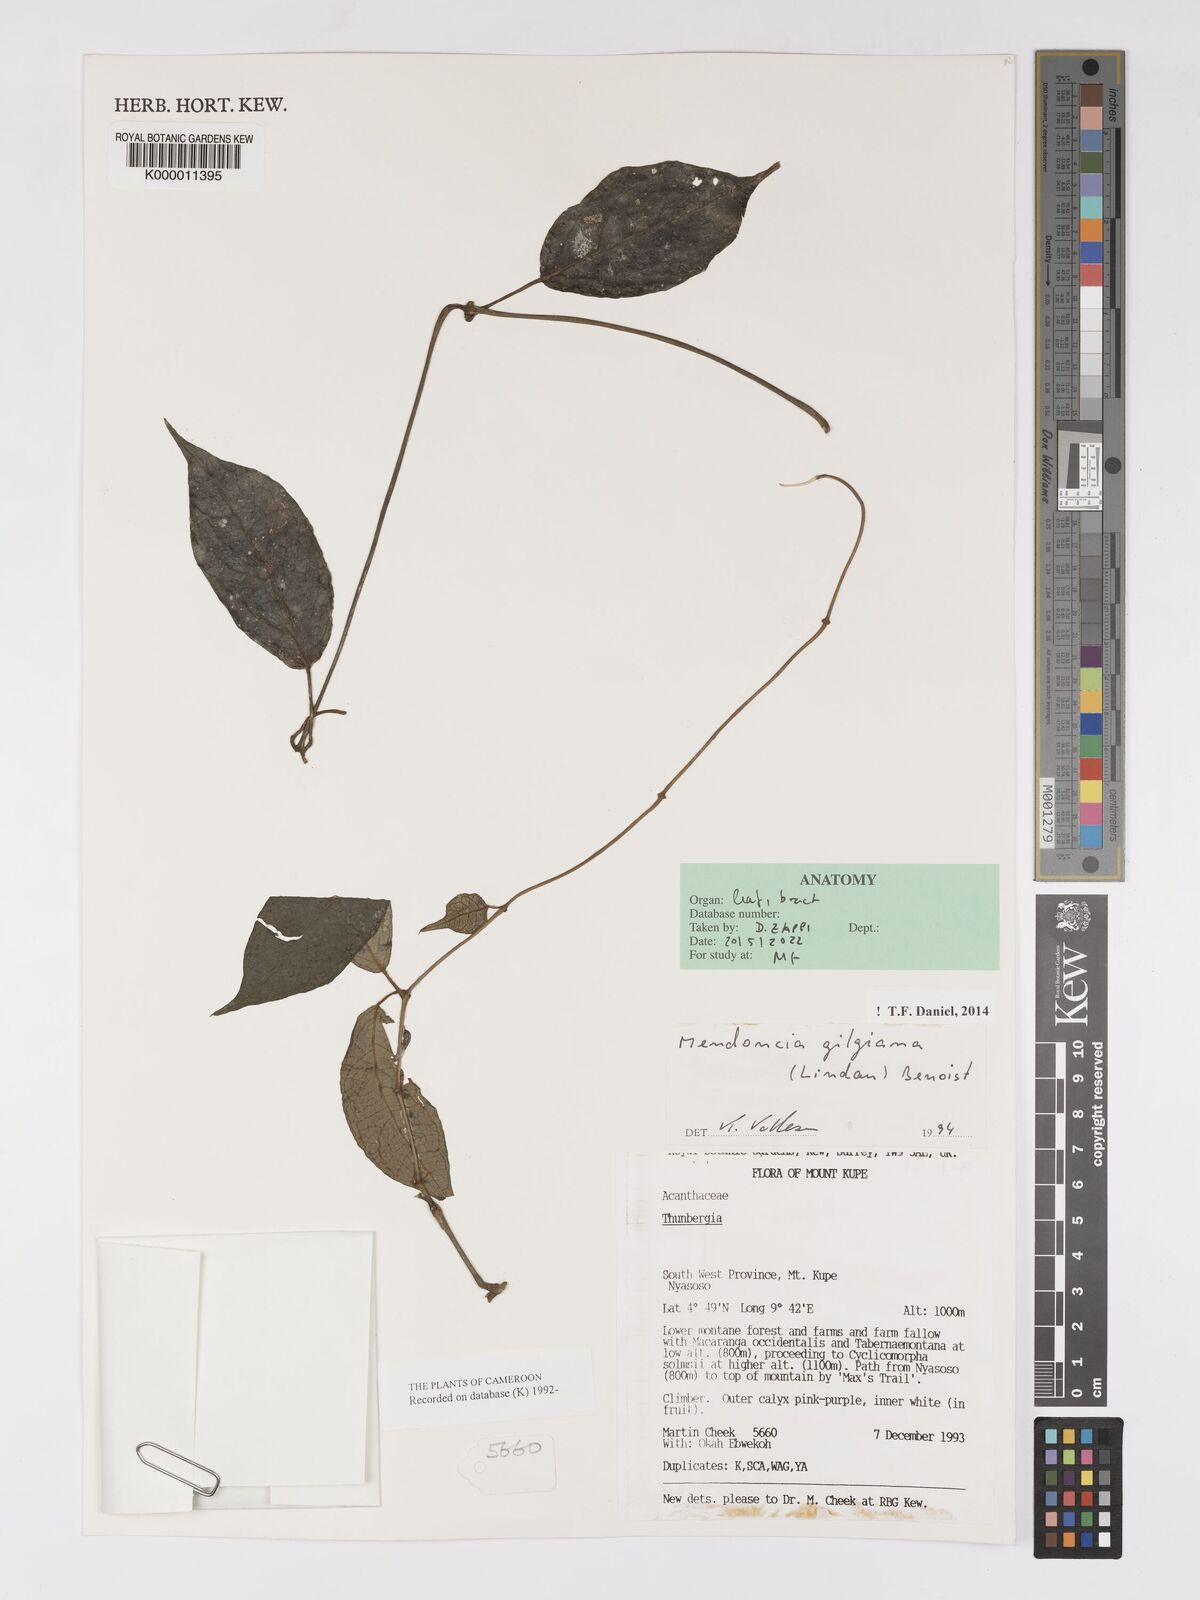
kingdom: Plantae
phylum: Tracheophyta
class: Magnoliopsida
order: Lamiales
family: Acanthaceae
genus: Mendoncia
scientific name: Mendoncia gilgiana
